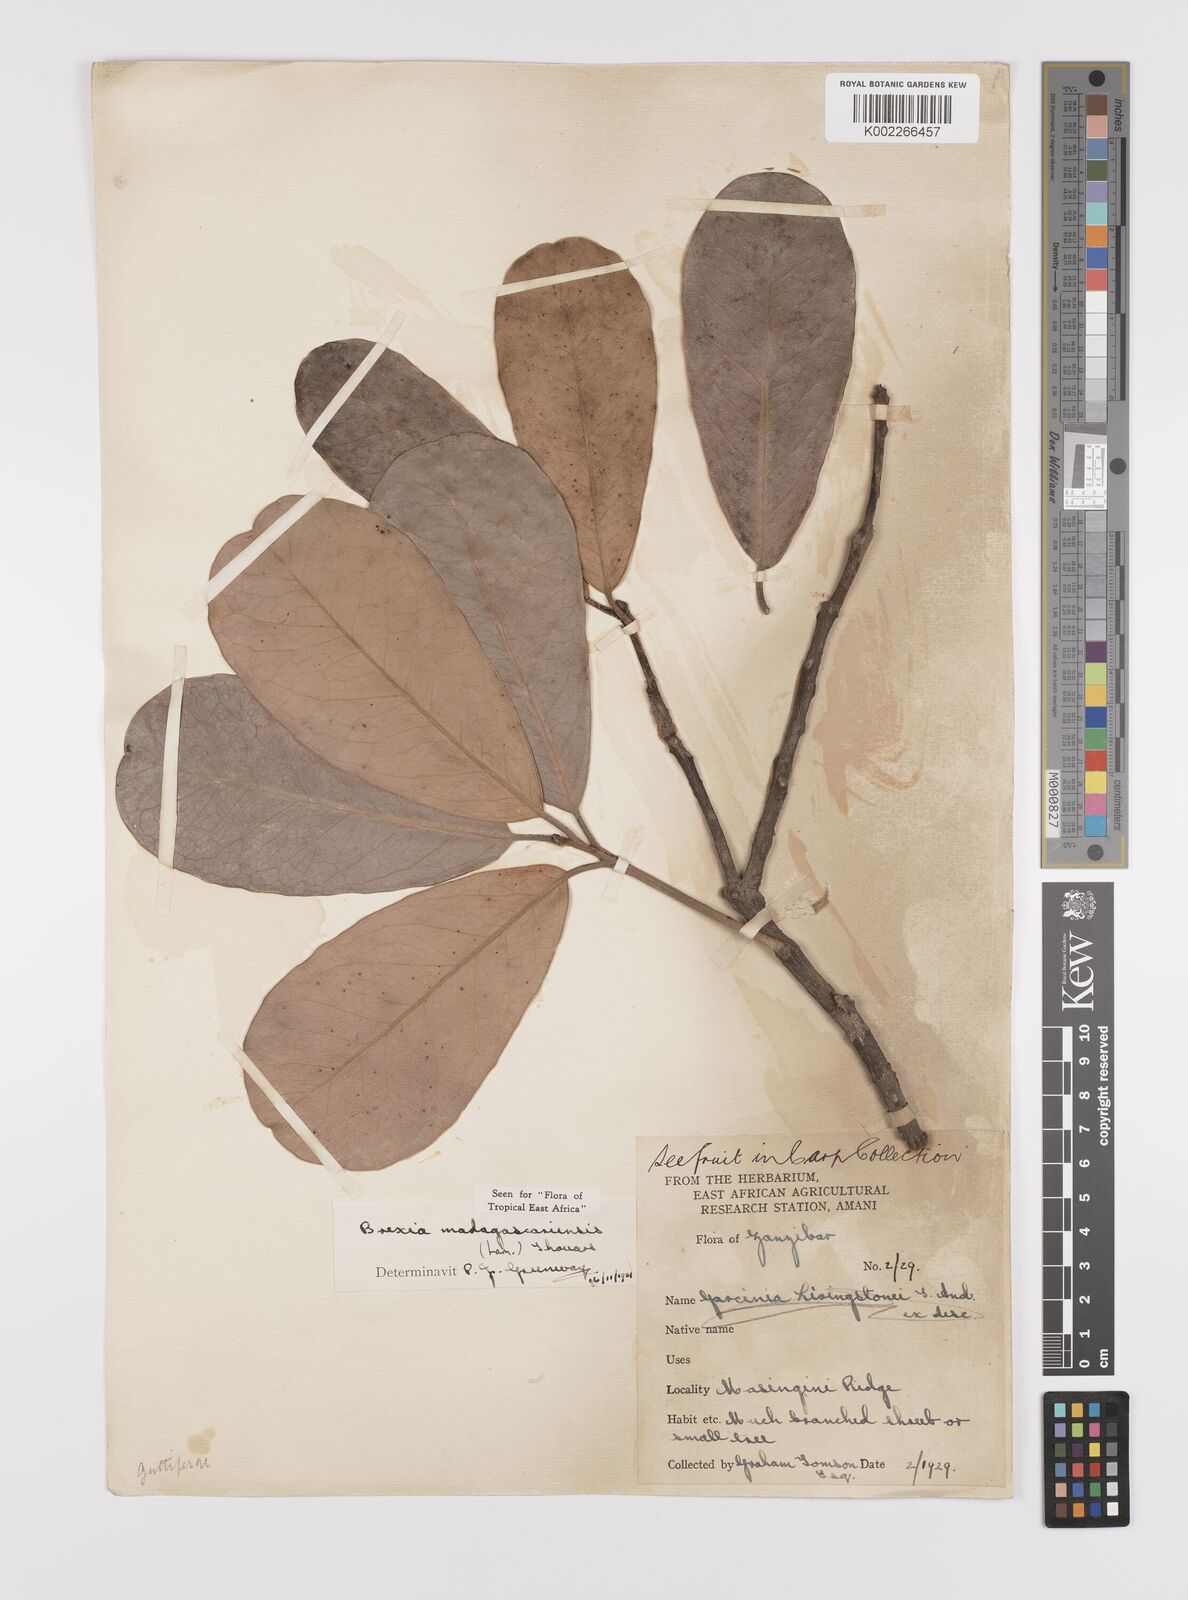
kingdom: Plantae
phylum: Tracheophyta
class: Magnoliopsida
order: Celastrales
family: Celastraceae
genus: Brexia
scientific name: Brexia madagascariensis
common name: Brexia
